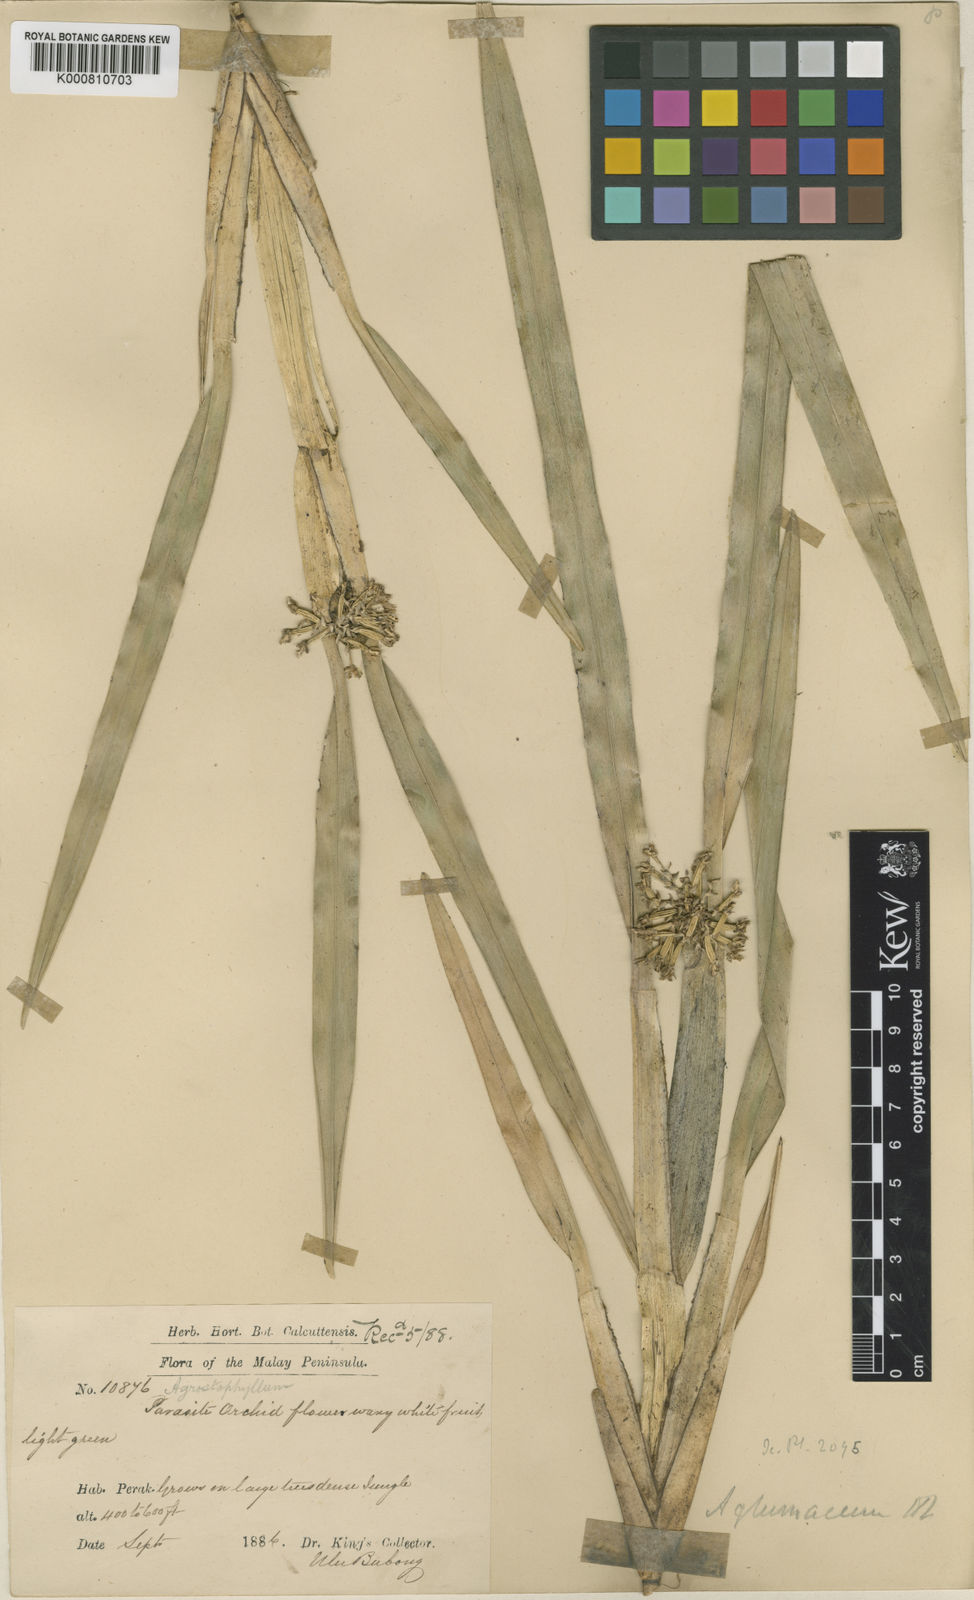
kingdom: Plantae
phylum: Tracheophyta
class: Liliopsida
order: Asparagales
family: Orchidaceae
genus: Agrostophyllum
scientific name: Agrostophyllum glumaceum
